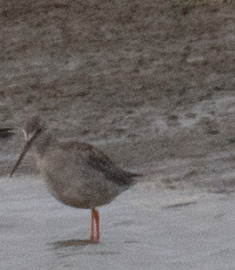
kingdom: Animalia
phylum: Chordata
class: Aves
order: Charadriiformes
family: Scolopacidae
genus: Tringa
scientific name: Tringa erythropus
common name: Sortklire
